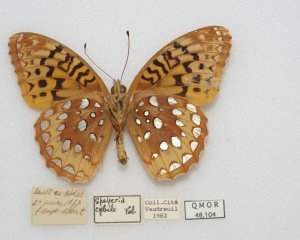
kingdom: Animalia
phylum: Arthropoda
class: Insecta
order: Lepidoptera
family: Nymphalidae
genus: Speyeria
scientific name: Speyeria cybele
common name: Great Spangled Fritillary
